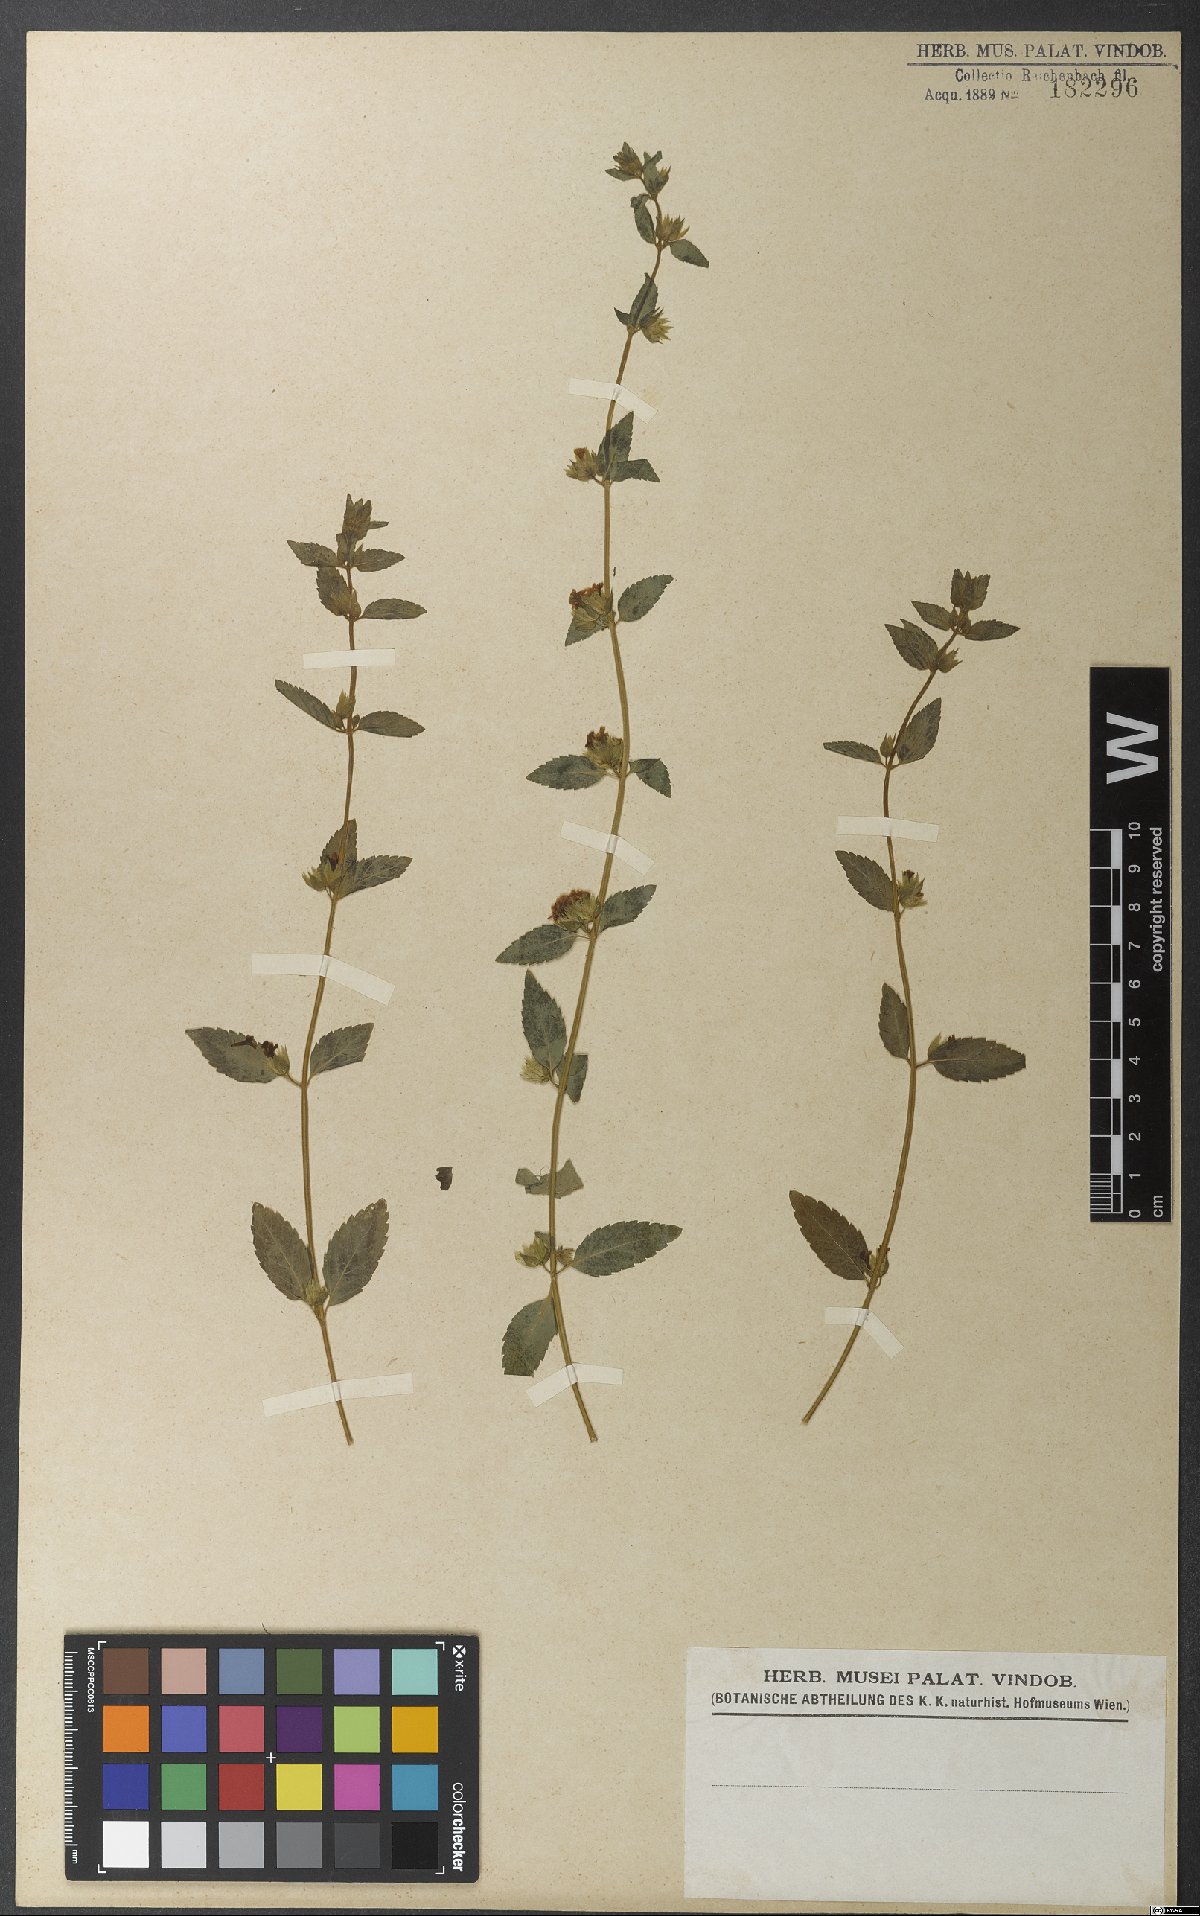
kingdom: Plantae
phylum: Tracheophyta
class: Magnoliopsida
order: Lamiales
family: Lamiaceae
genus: Marsypianthes
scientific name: Marsypianthes chamaedrys
